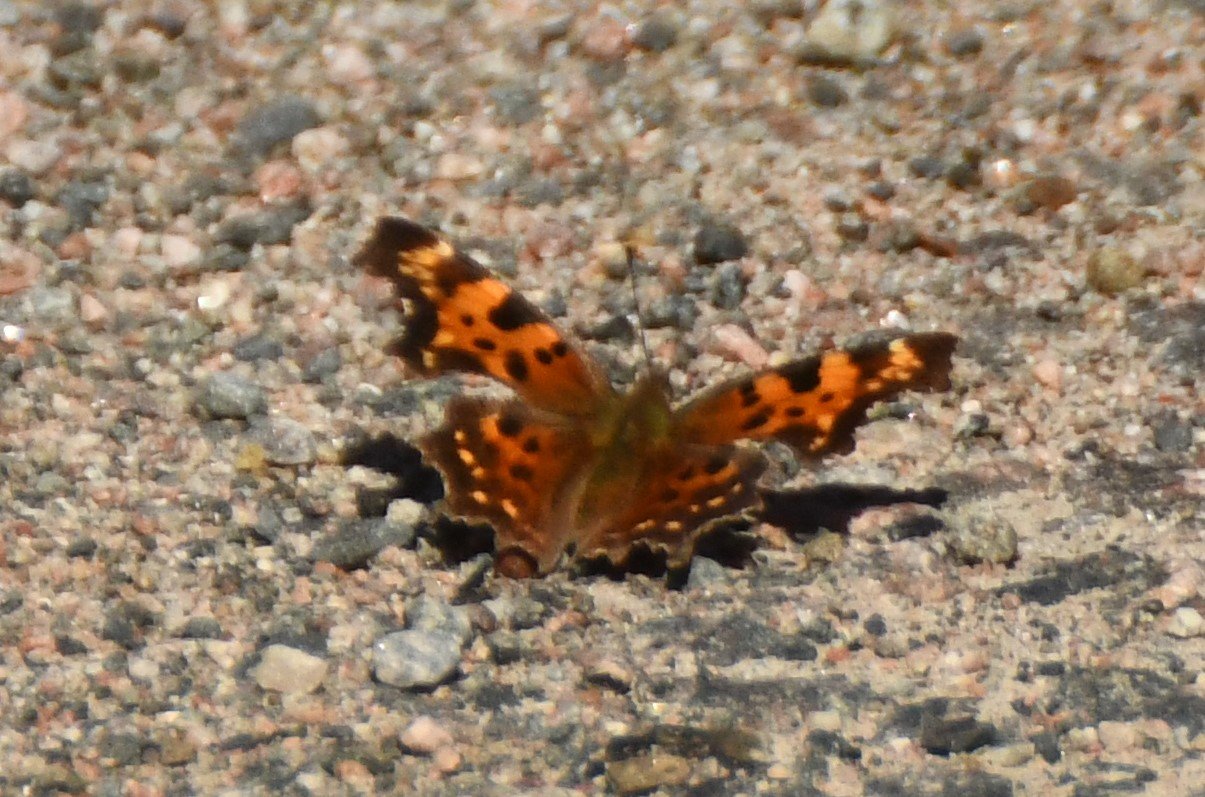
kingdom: Animalia
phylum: Arthropoda
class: Insecta
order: Lepidoptera
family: Nymphalidae
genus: Polygonia
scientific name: Polygonia faunus
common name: Green Comma
